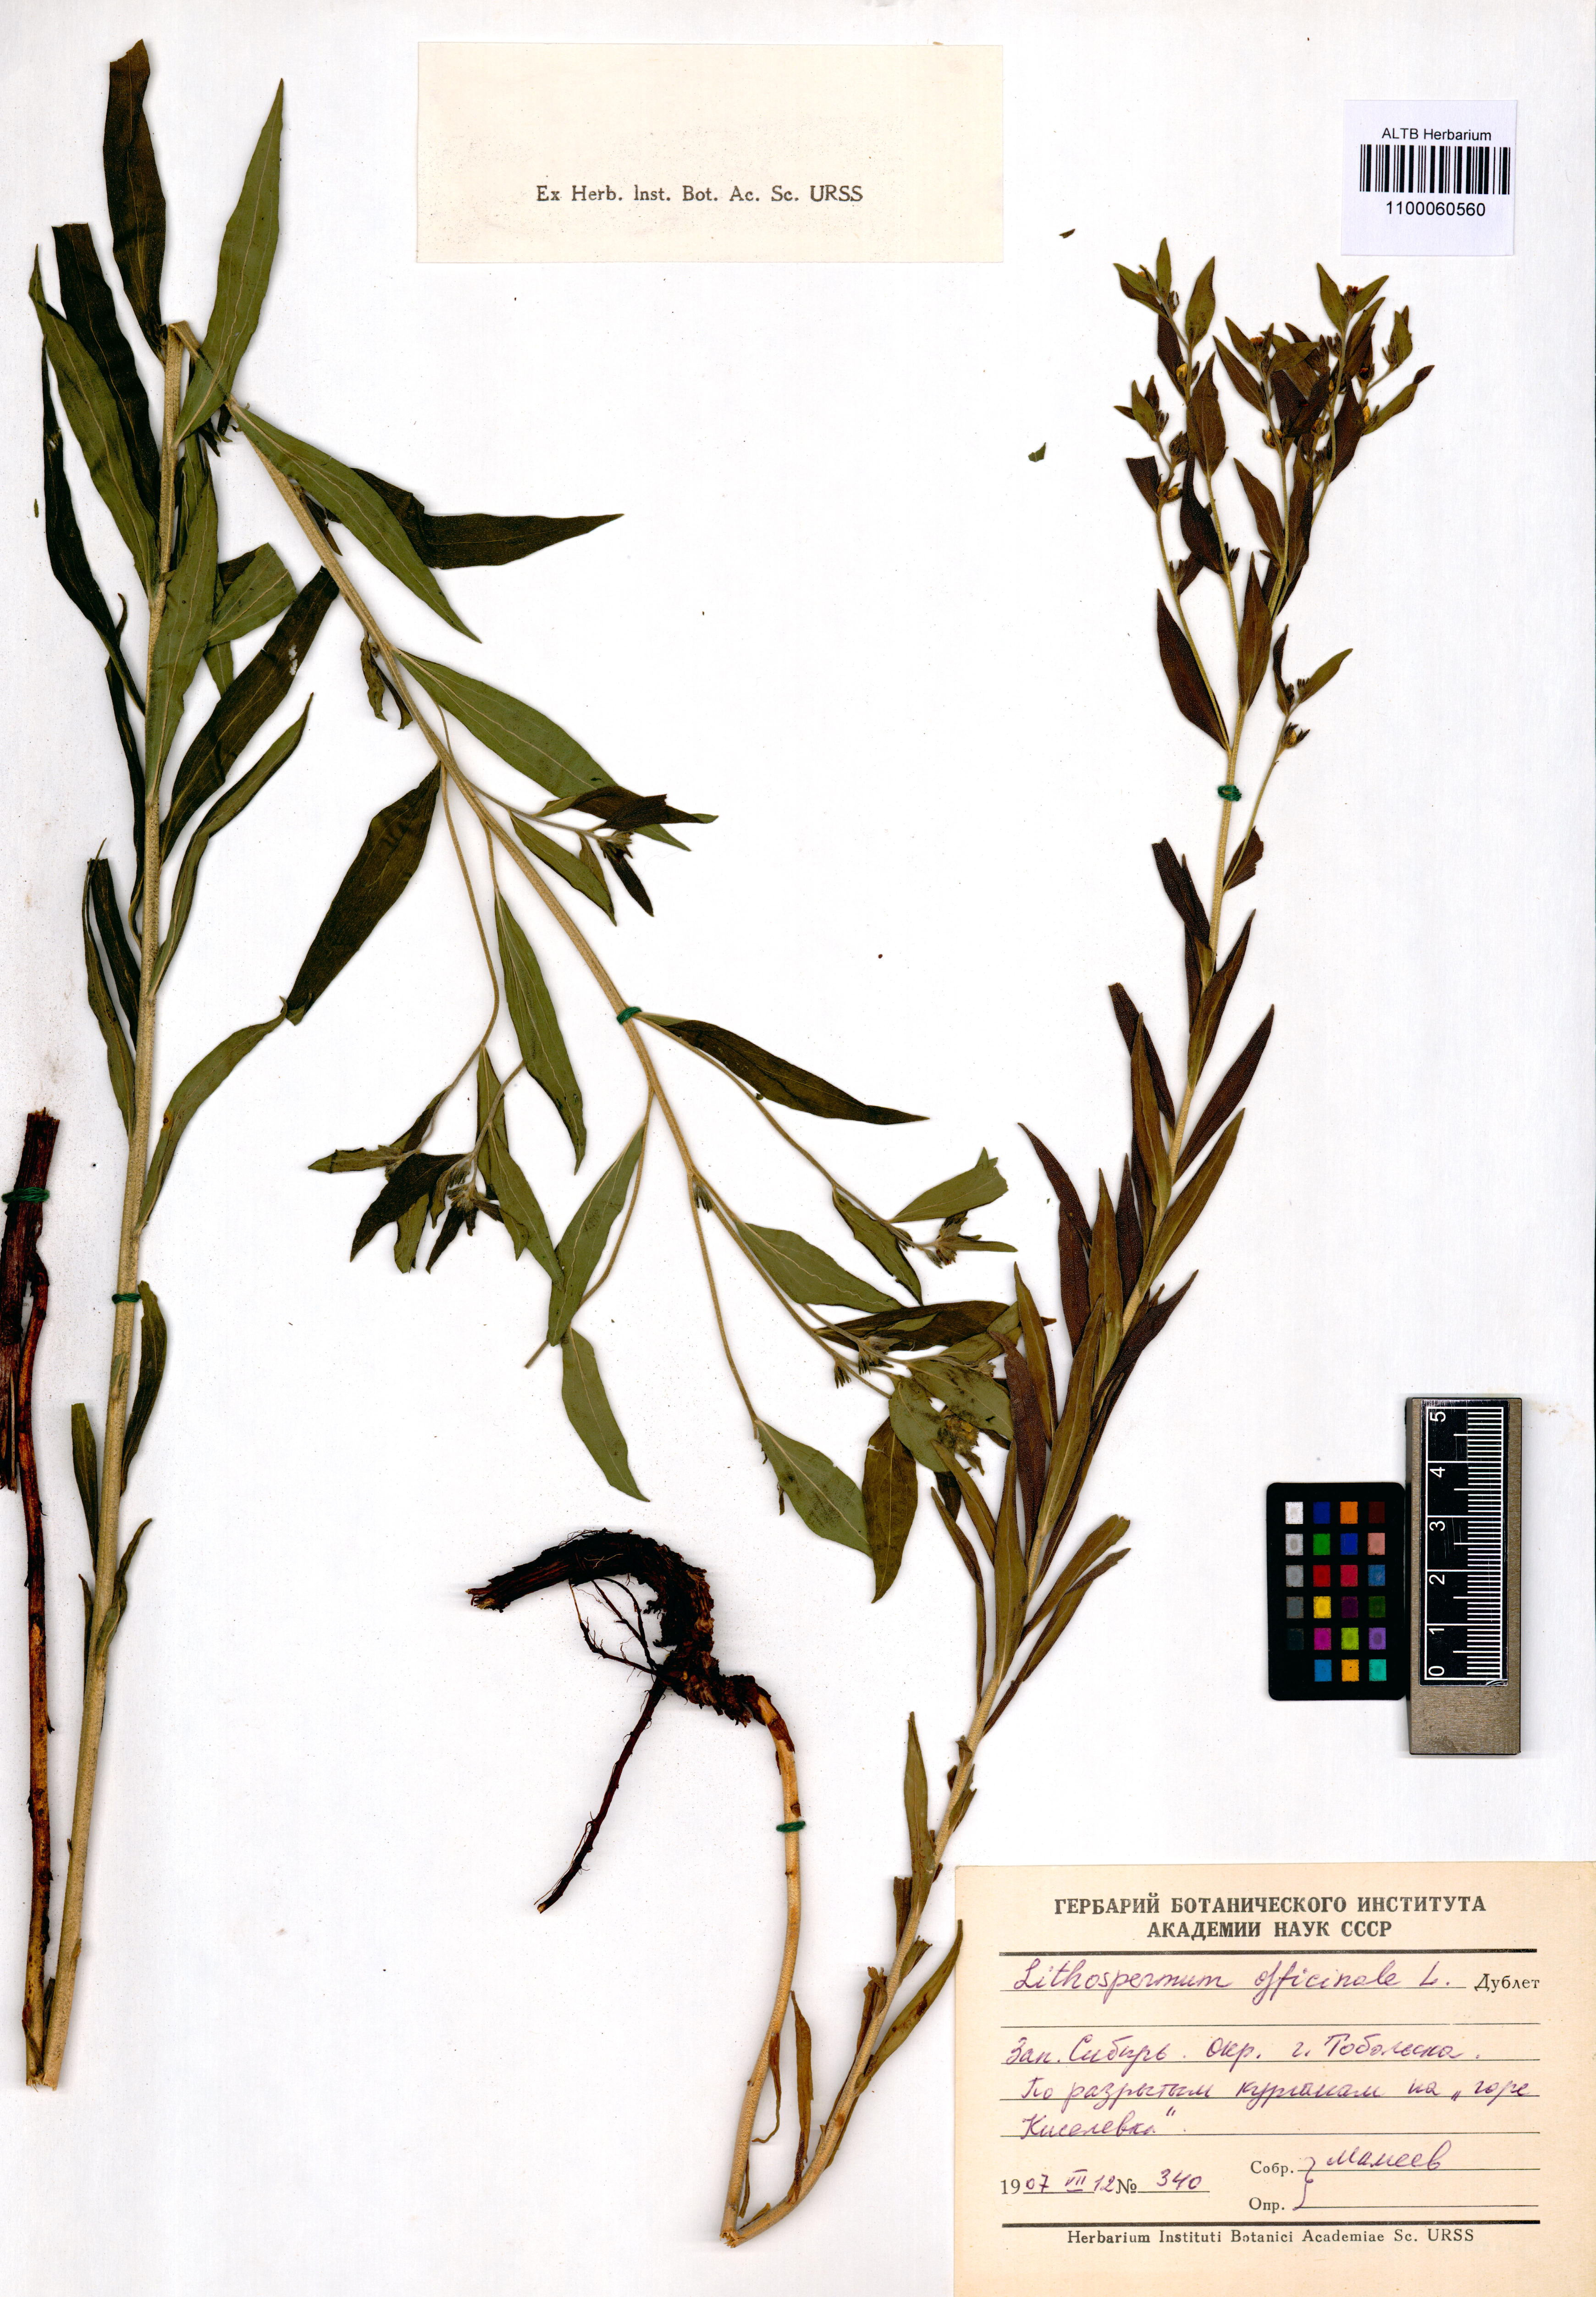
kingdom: Plantae
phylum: Tracheophyta
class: Magnoliopsida
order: Boraginales
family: Boraginaceae
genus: Lithospermum
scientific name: Lithospermum officinale
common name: Common gromwell
